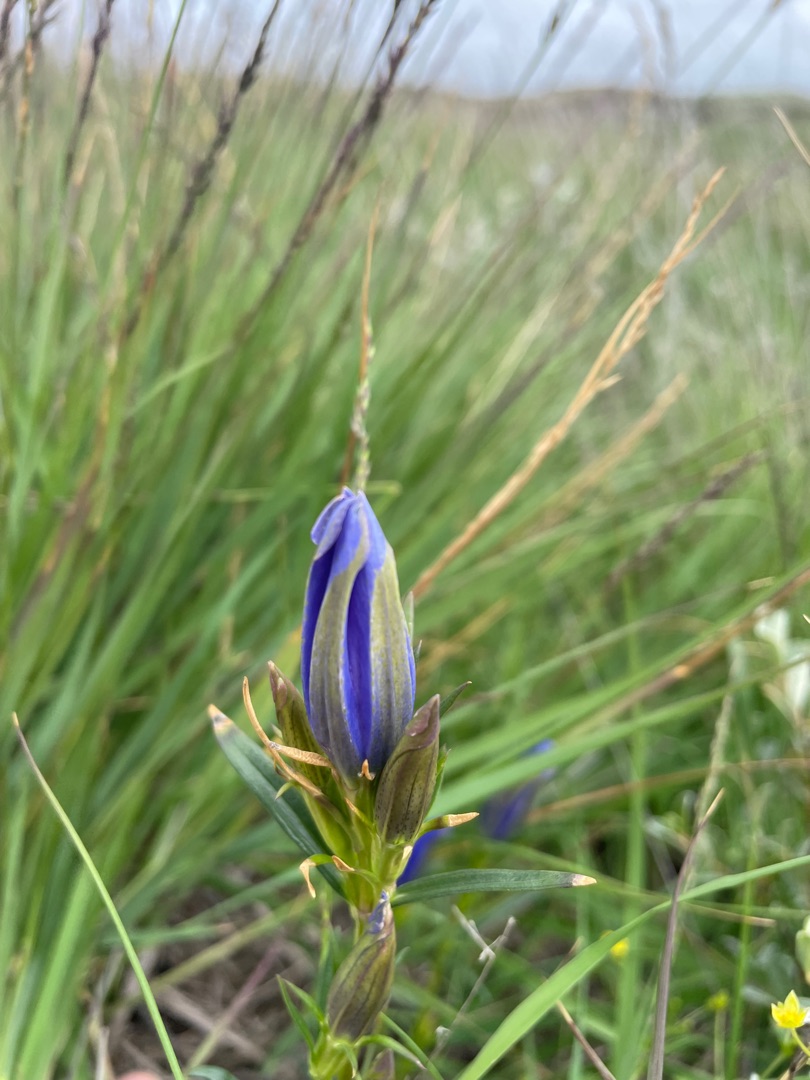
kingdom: Plantae
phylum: Tracheophyta
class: Magnoliopsida
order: Gentianales
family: Gentianaceae
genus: Gentiana
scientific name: Gentiana pneumonanthe
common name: Klokke-ensian
